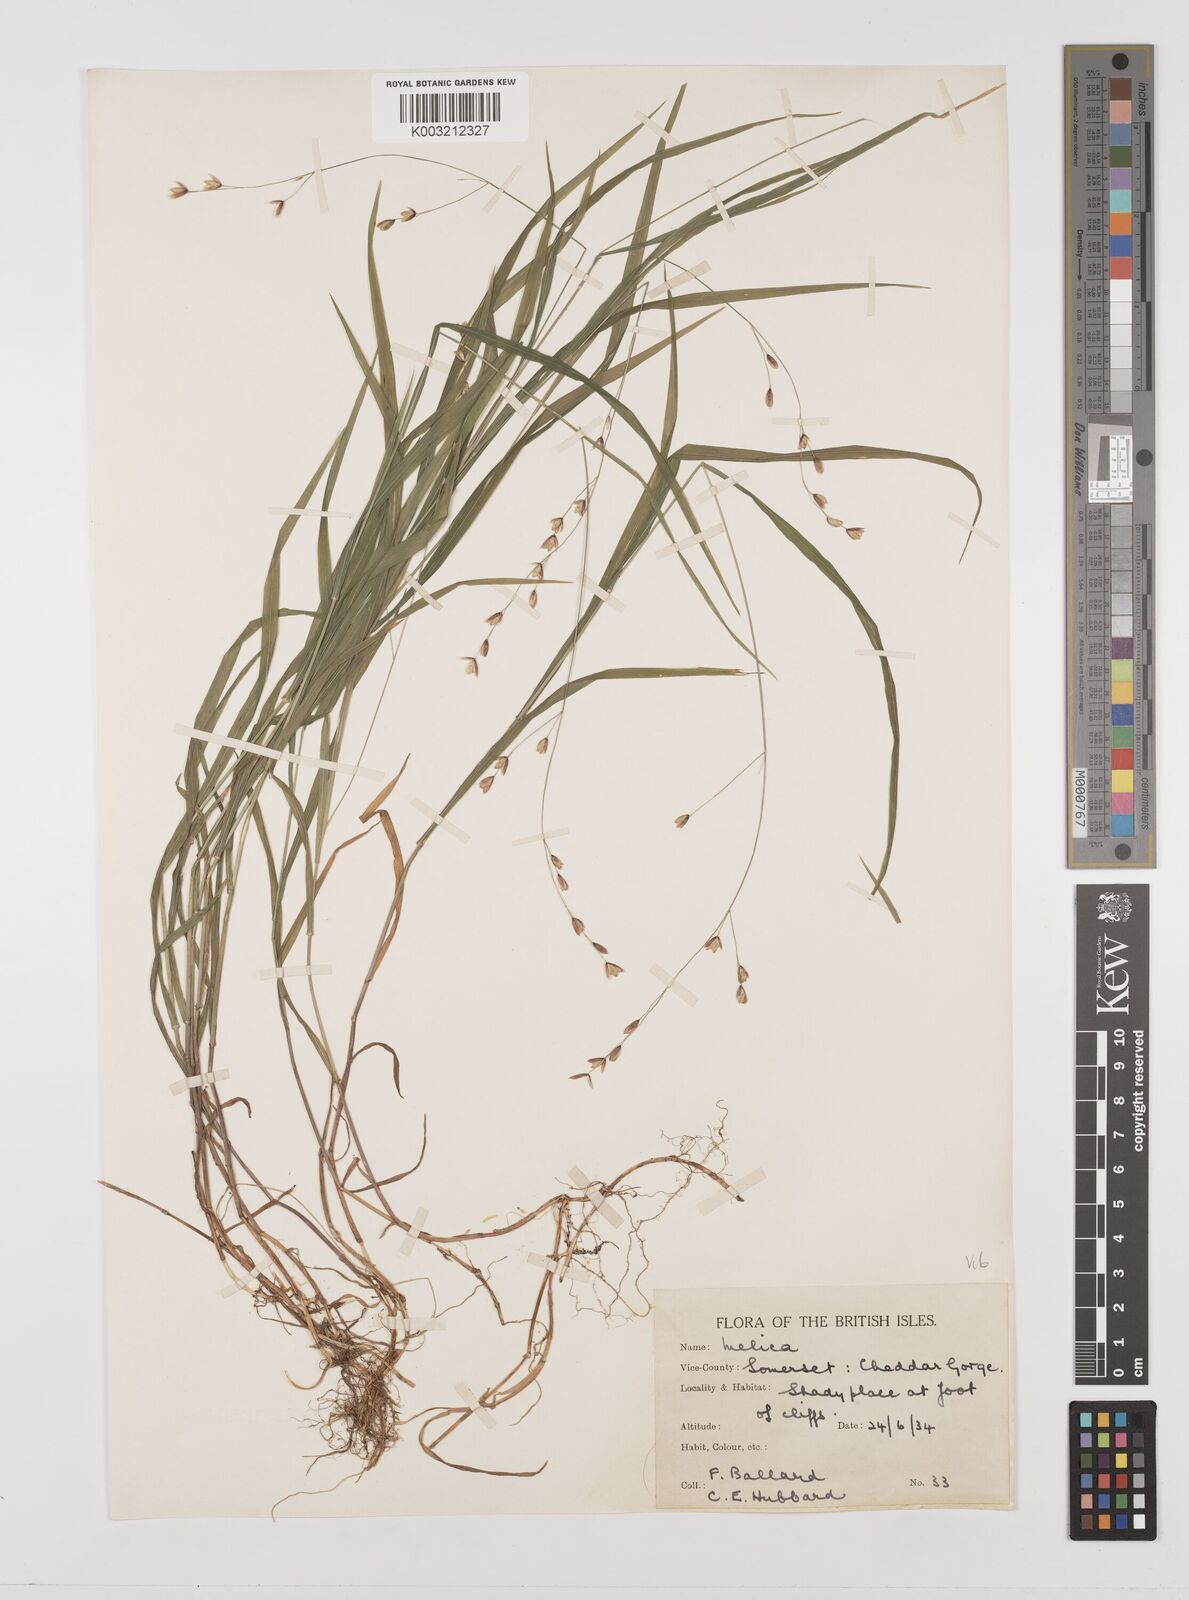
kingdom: Plantae
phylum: Tracheophyta
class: Liliopsida
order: Poales
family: Poaceae
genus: Melica
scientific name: Melica uniflora
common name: Wood melick
